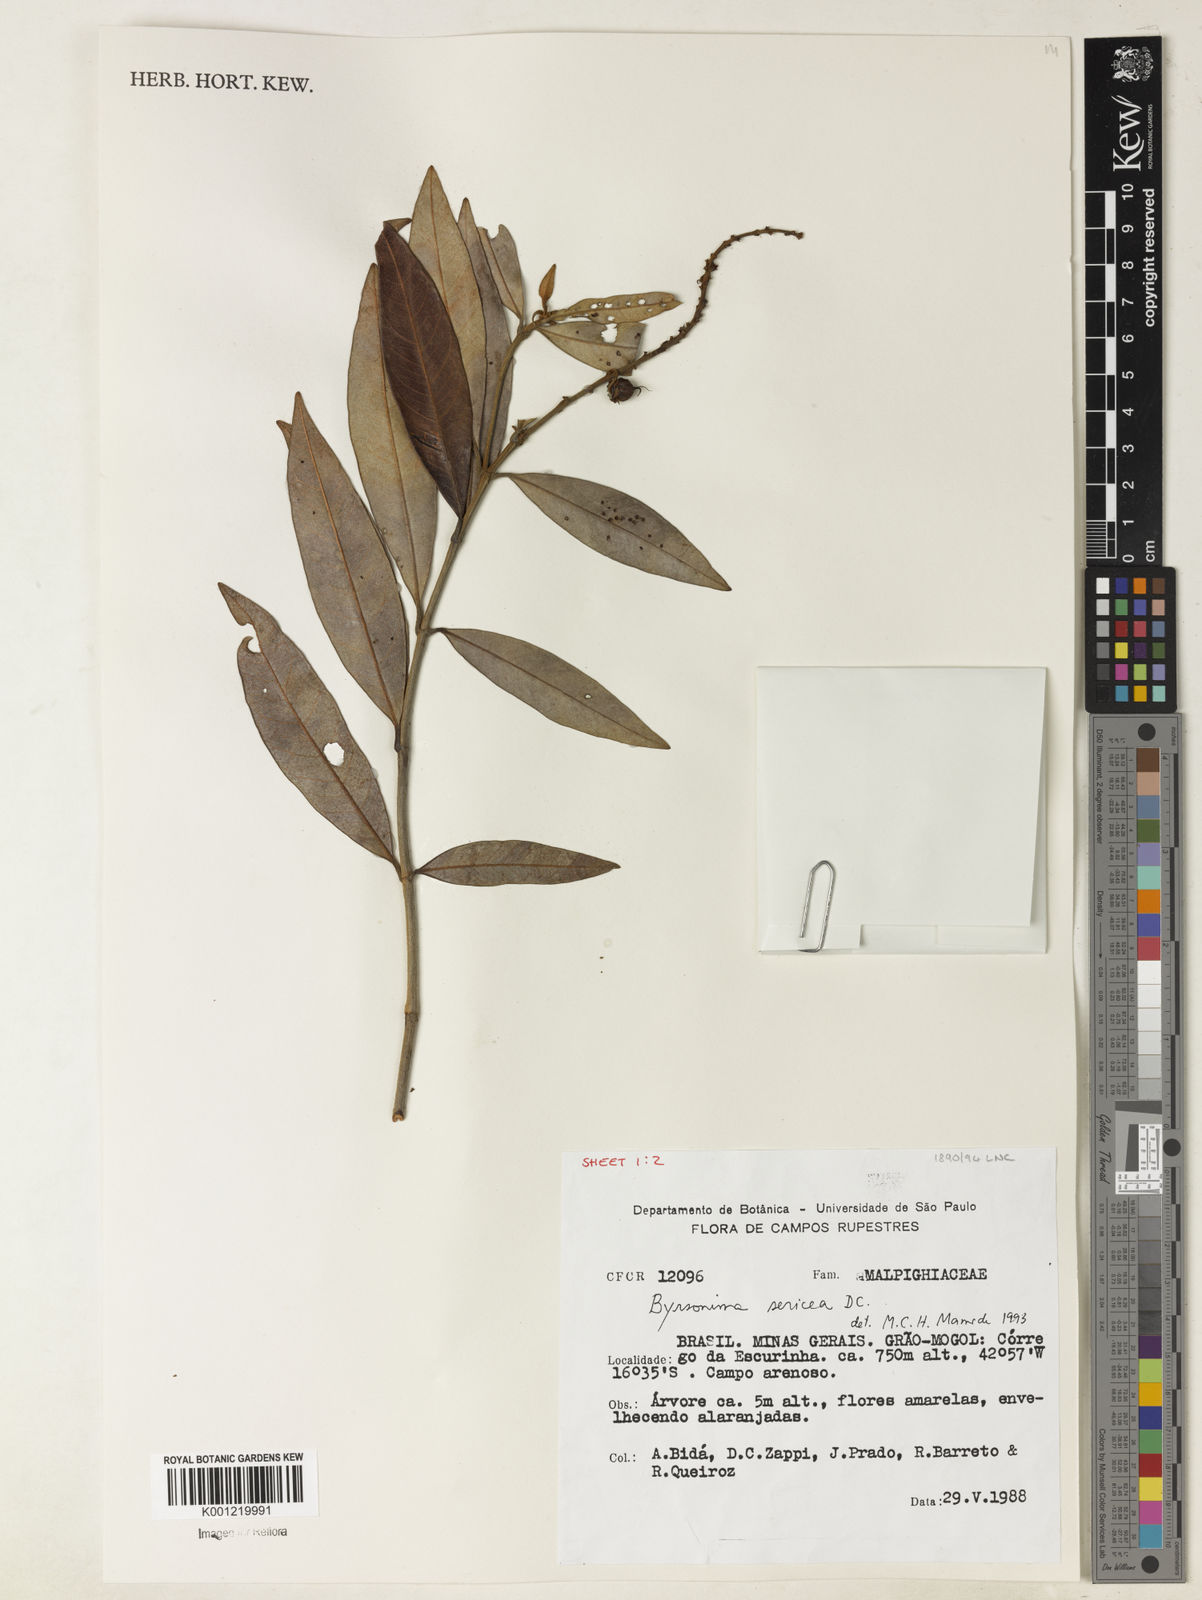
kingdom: Plantae
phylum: Tracheophyta
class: Magnoliopsida
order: Malpighiales
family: Malpighiaceae
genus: Byrsonima
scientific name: Byrsonima sericea
